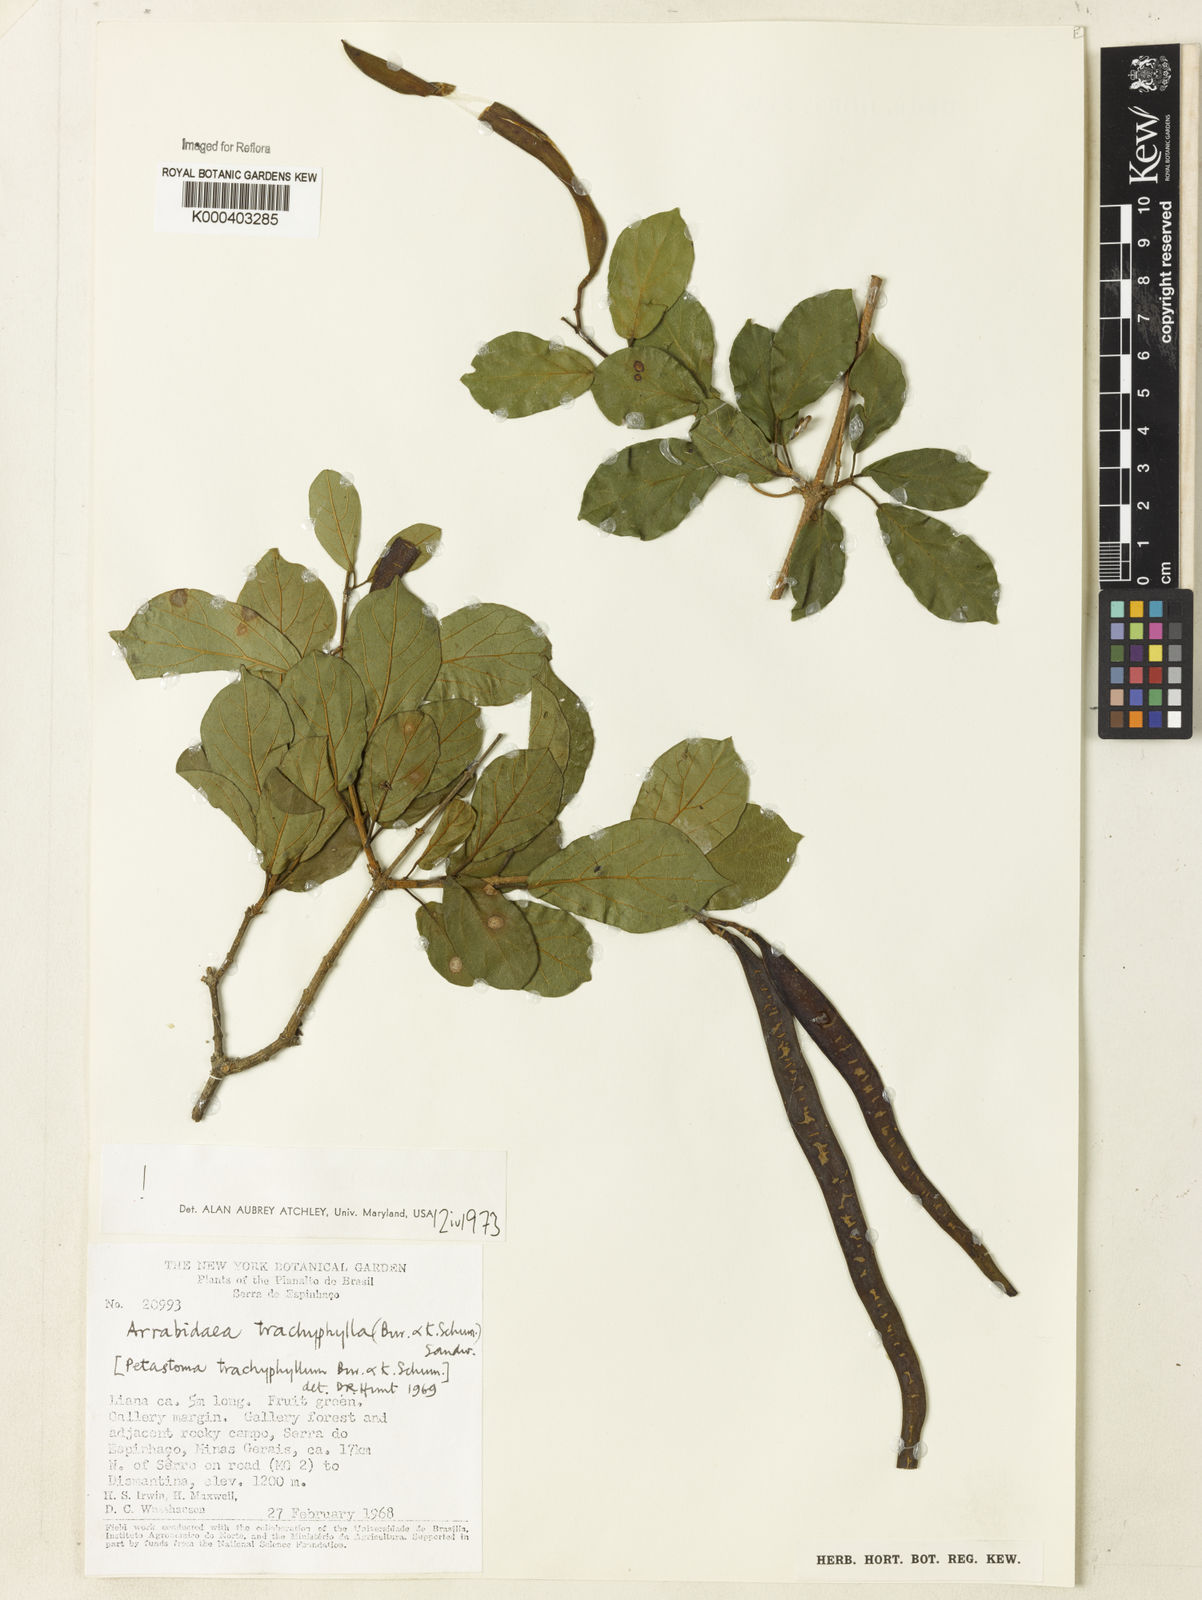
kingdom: Plantae
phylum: Tracheophyta
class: Magnoliopsida
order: Lamiales
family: Bignoniaceae
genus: Fridericia
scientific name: Fridericia trachyphylla
